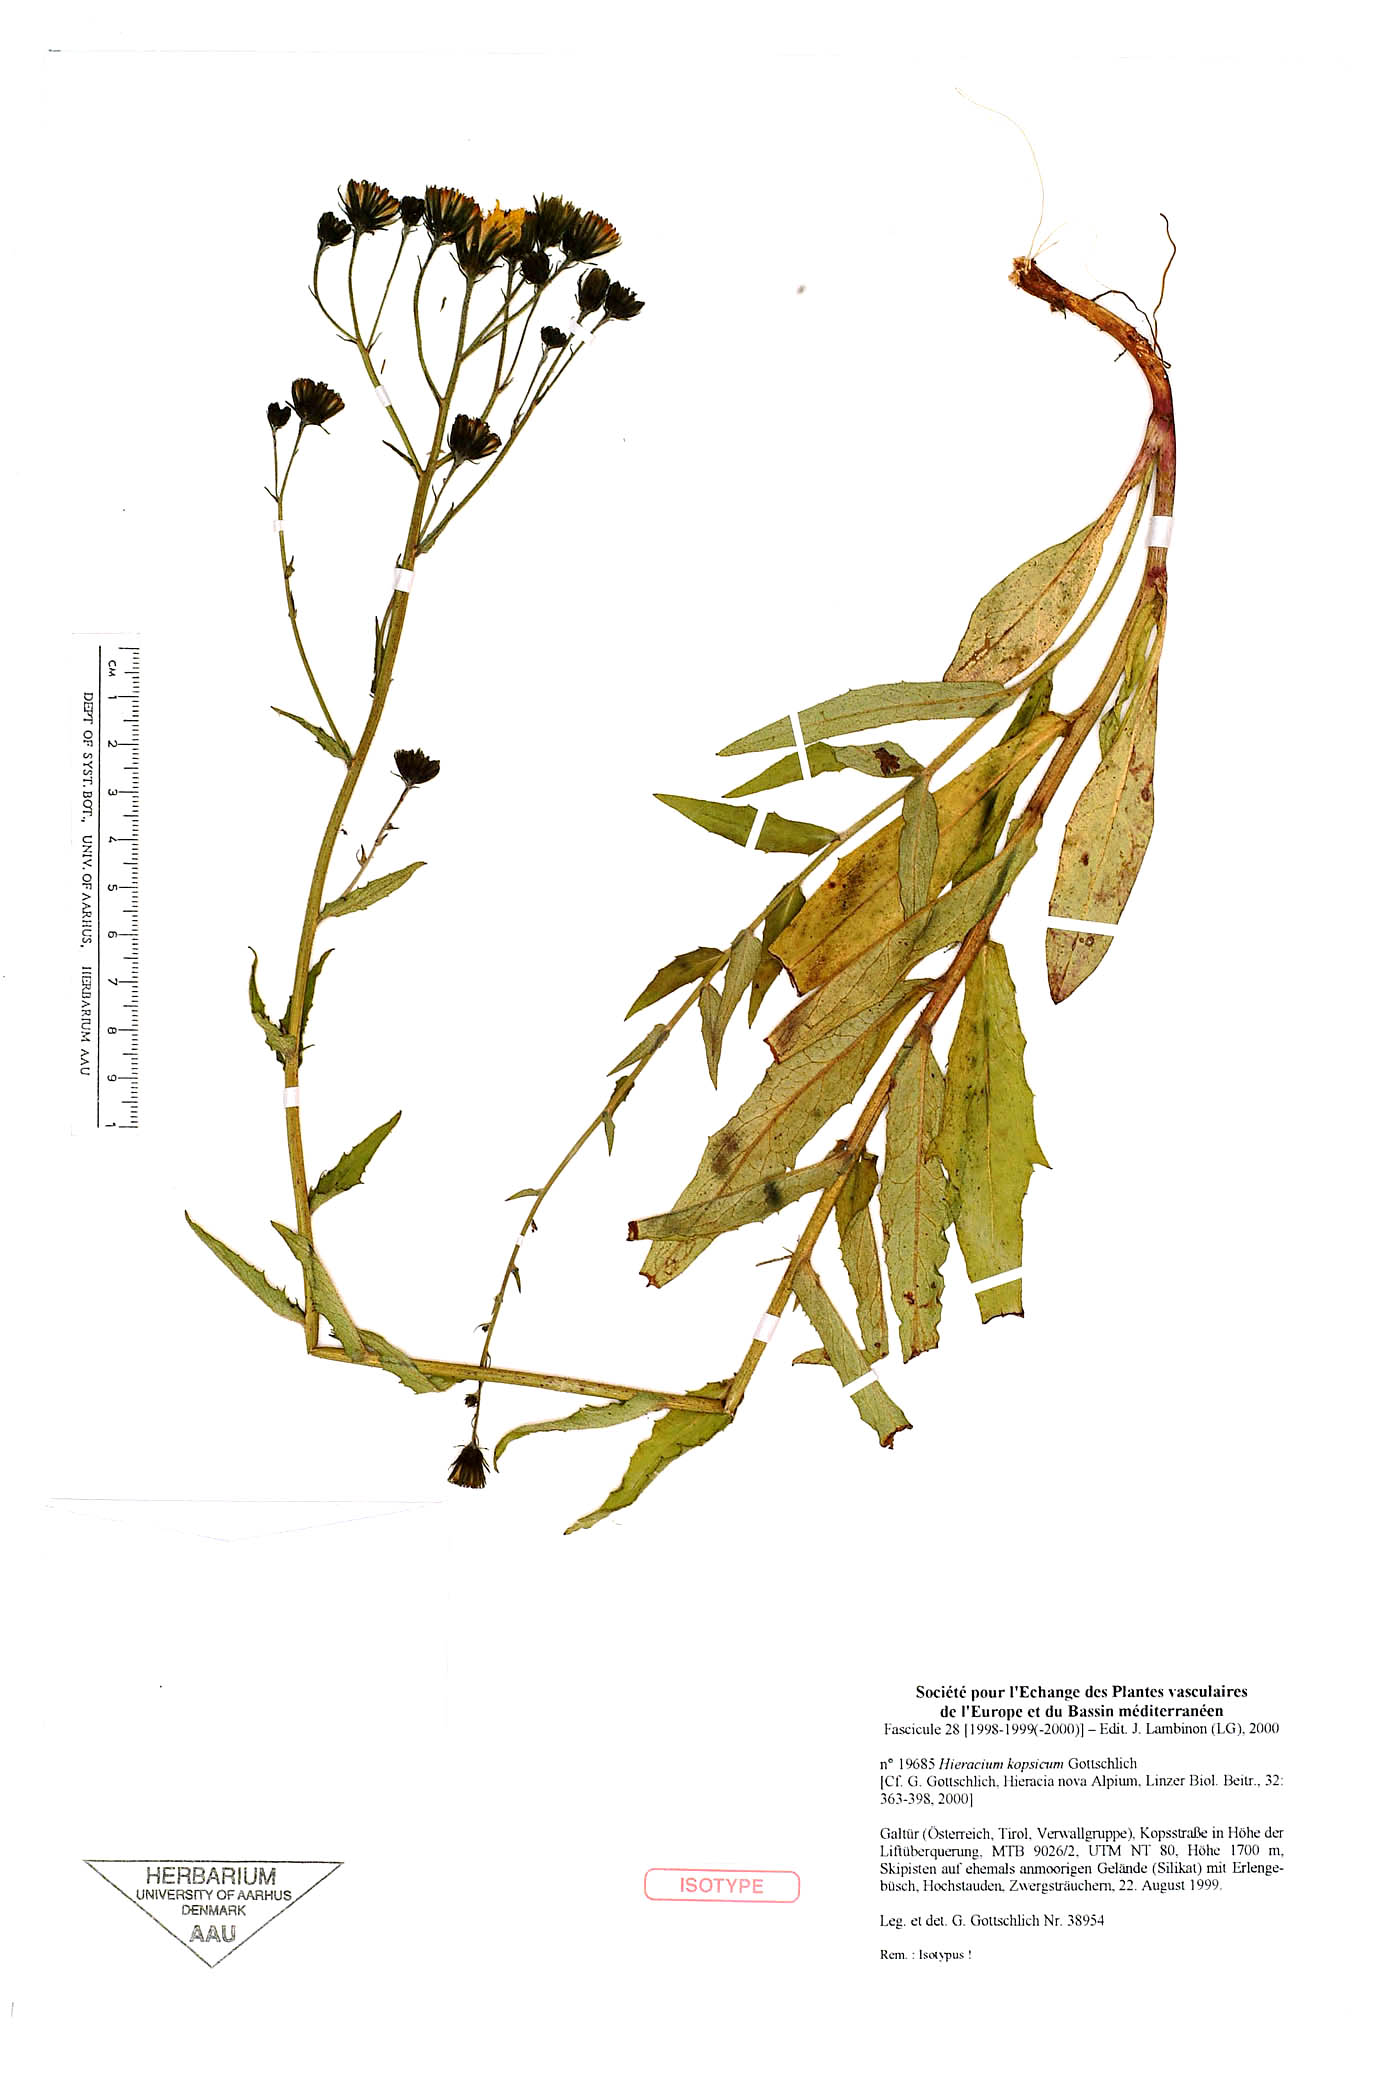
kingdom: Plantae
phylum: Tracheophyta
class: Magnoliopsida
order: Asterales
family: Asteraceae
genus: Hieracium
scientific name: Hieracium kopsicum
